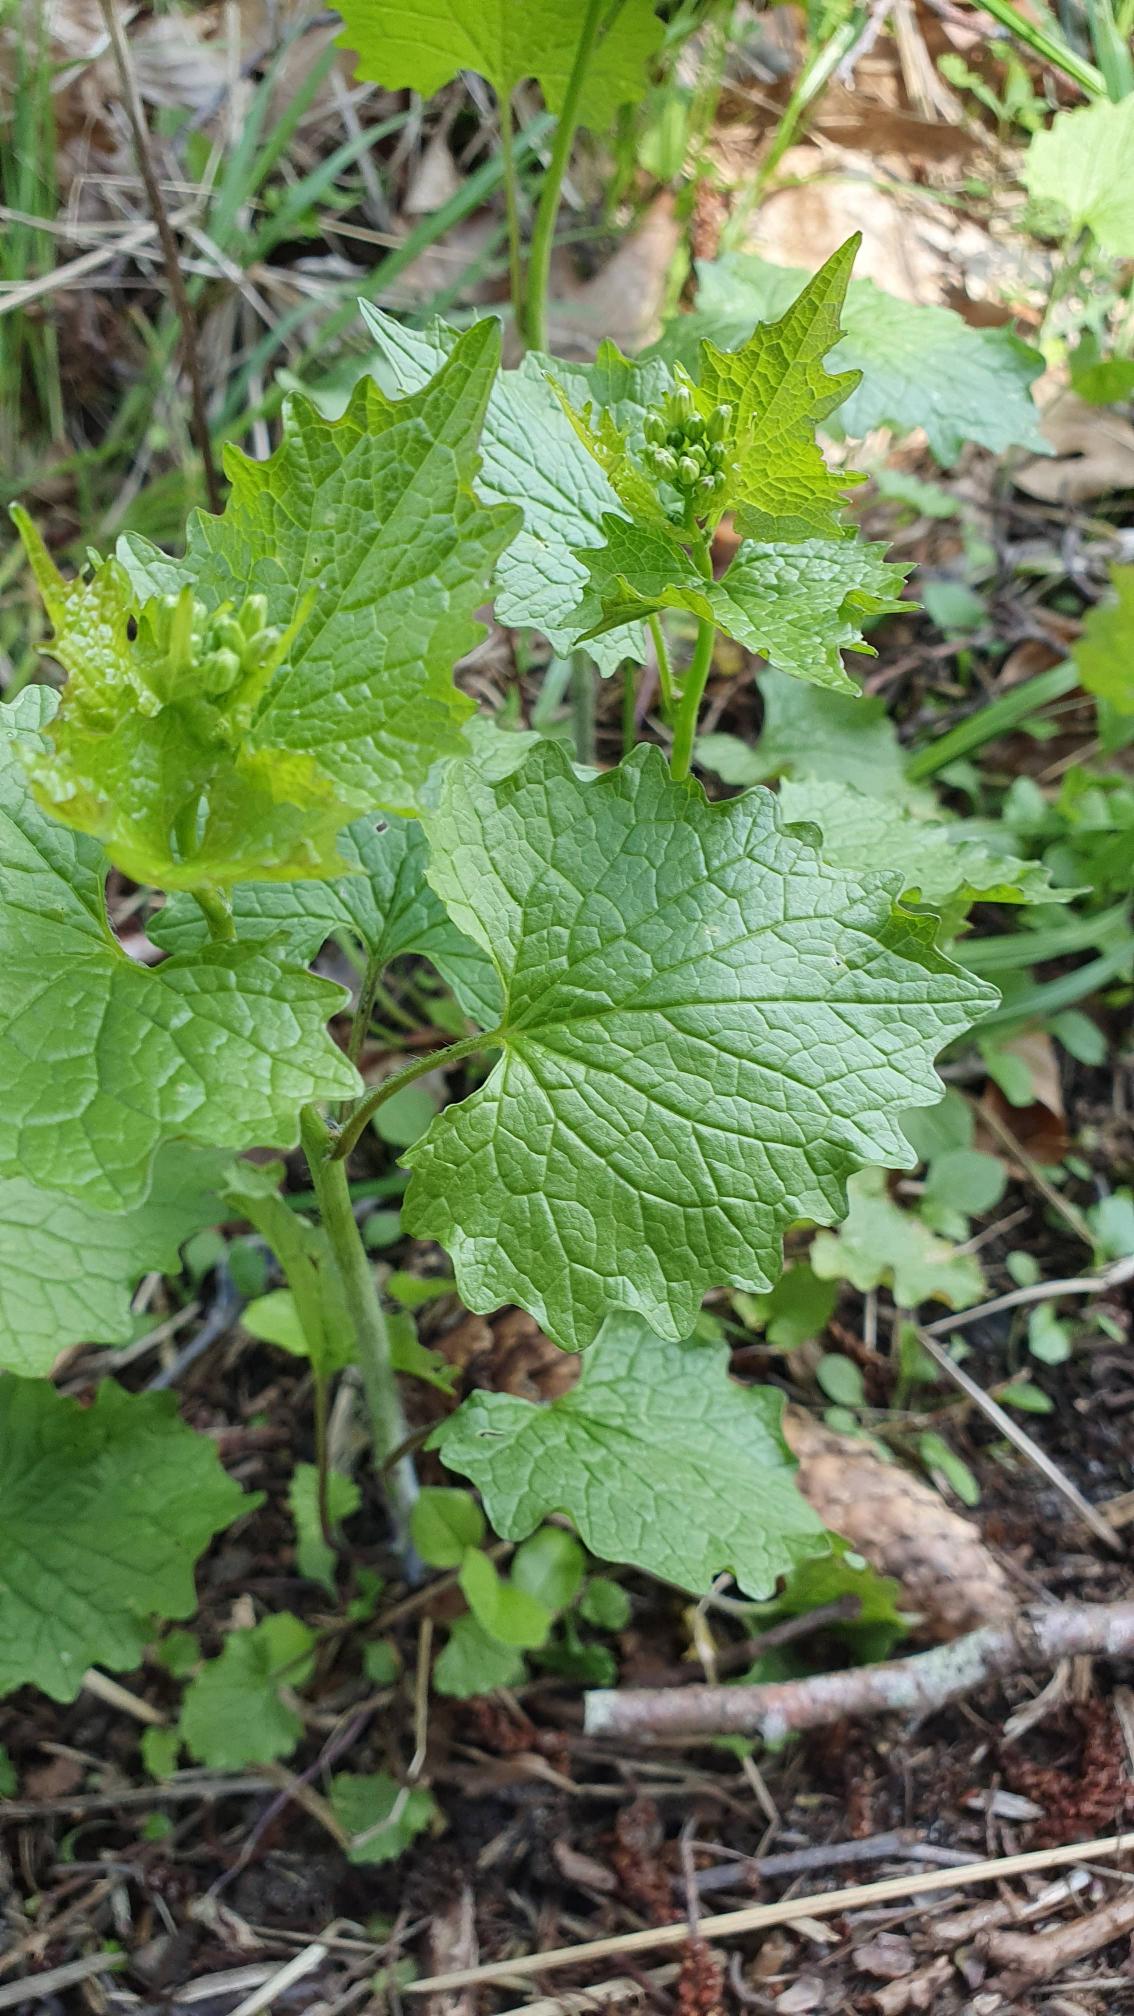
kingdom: Plantae
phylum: Tracheophyta
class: Magnoliopsida
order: Brassicales
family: Brassicaceae
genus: Alliaria
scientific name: Alliaria petiolata
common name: Løgkarse
